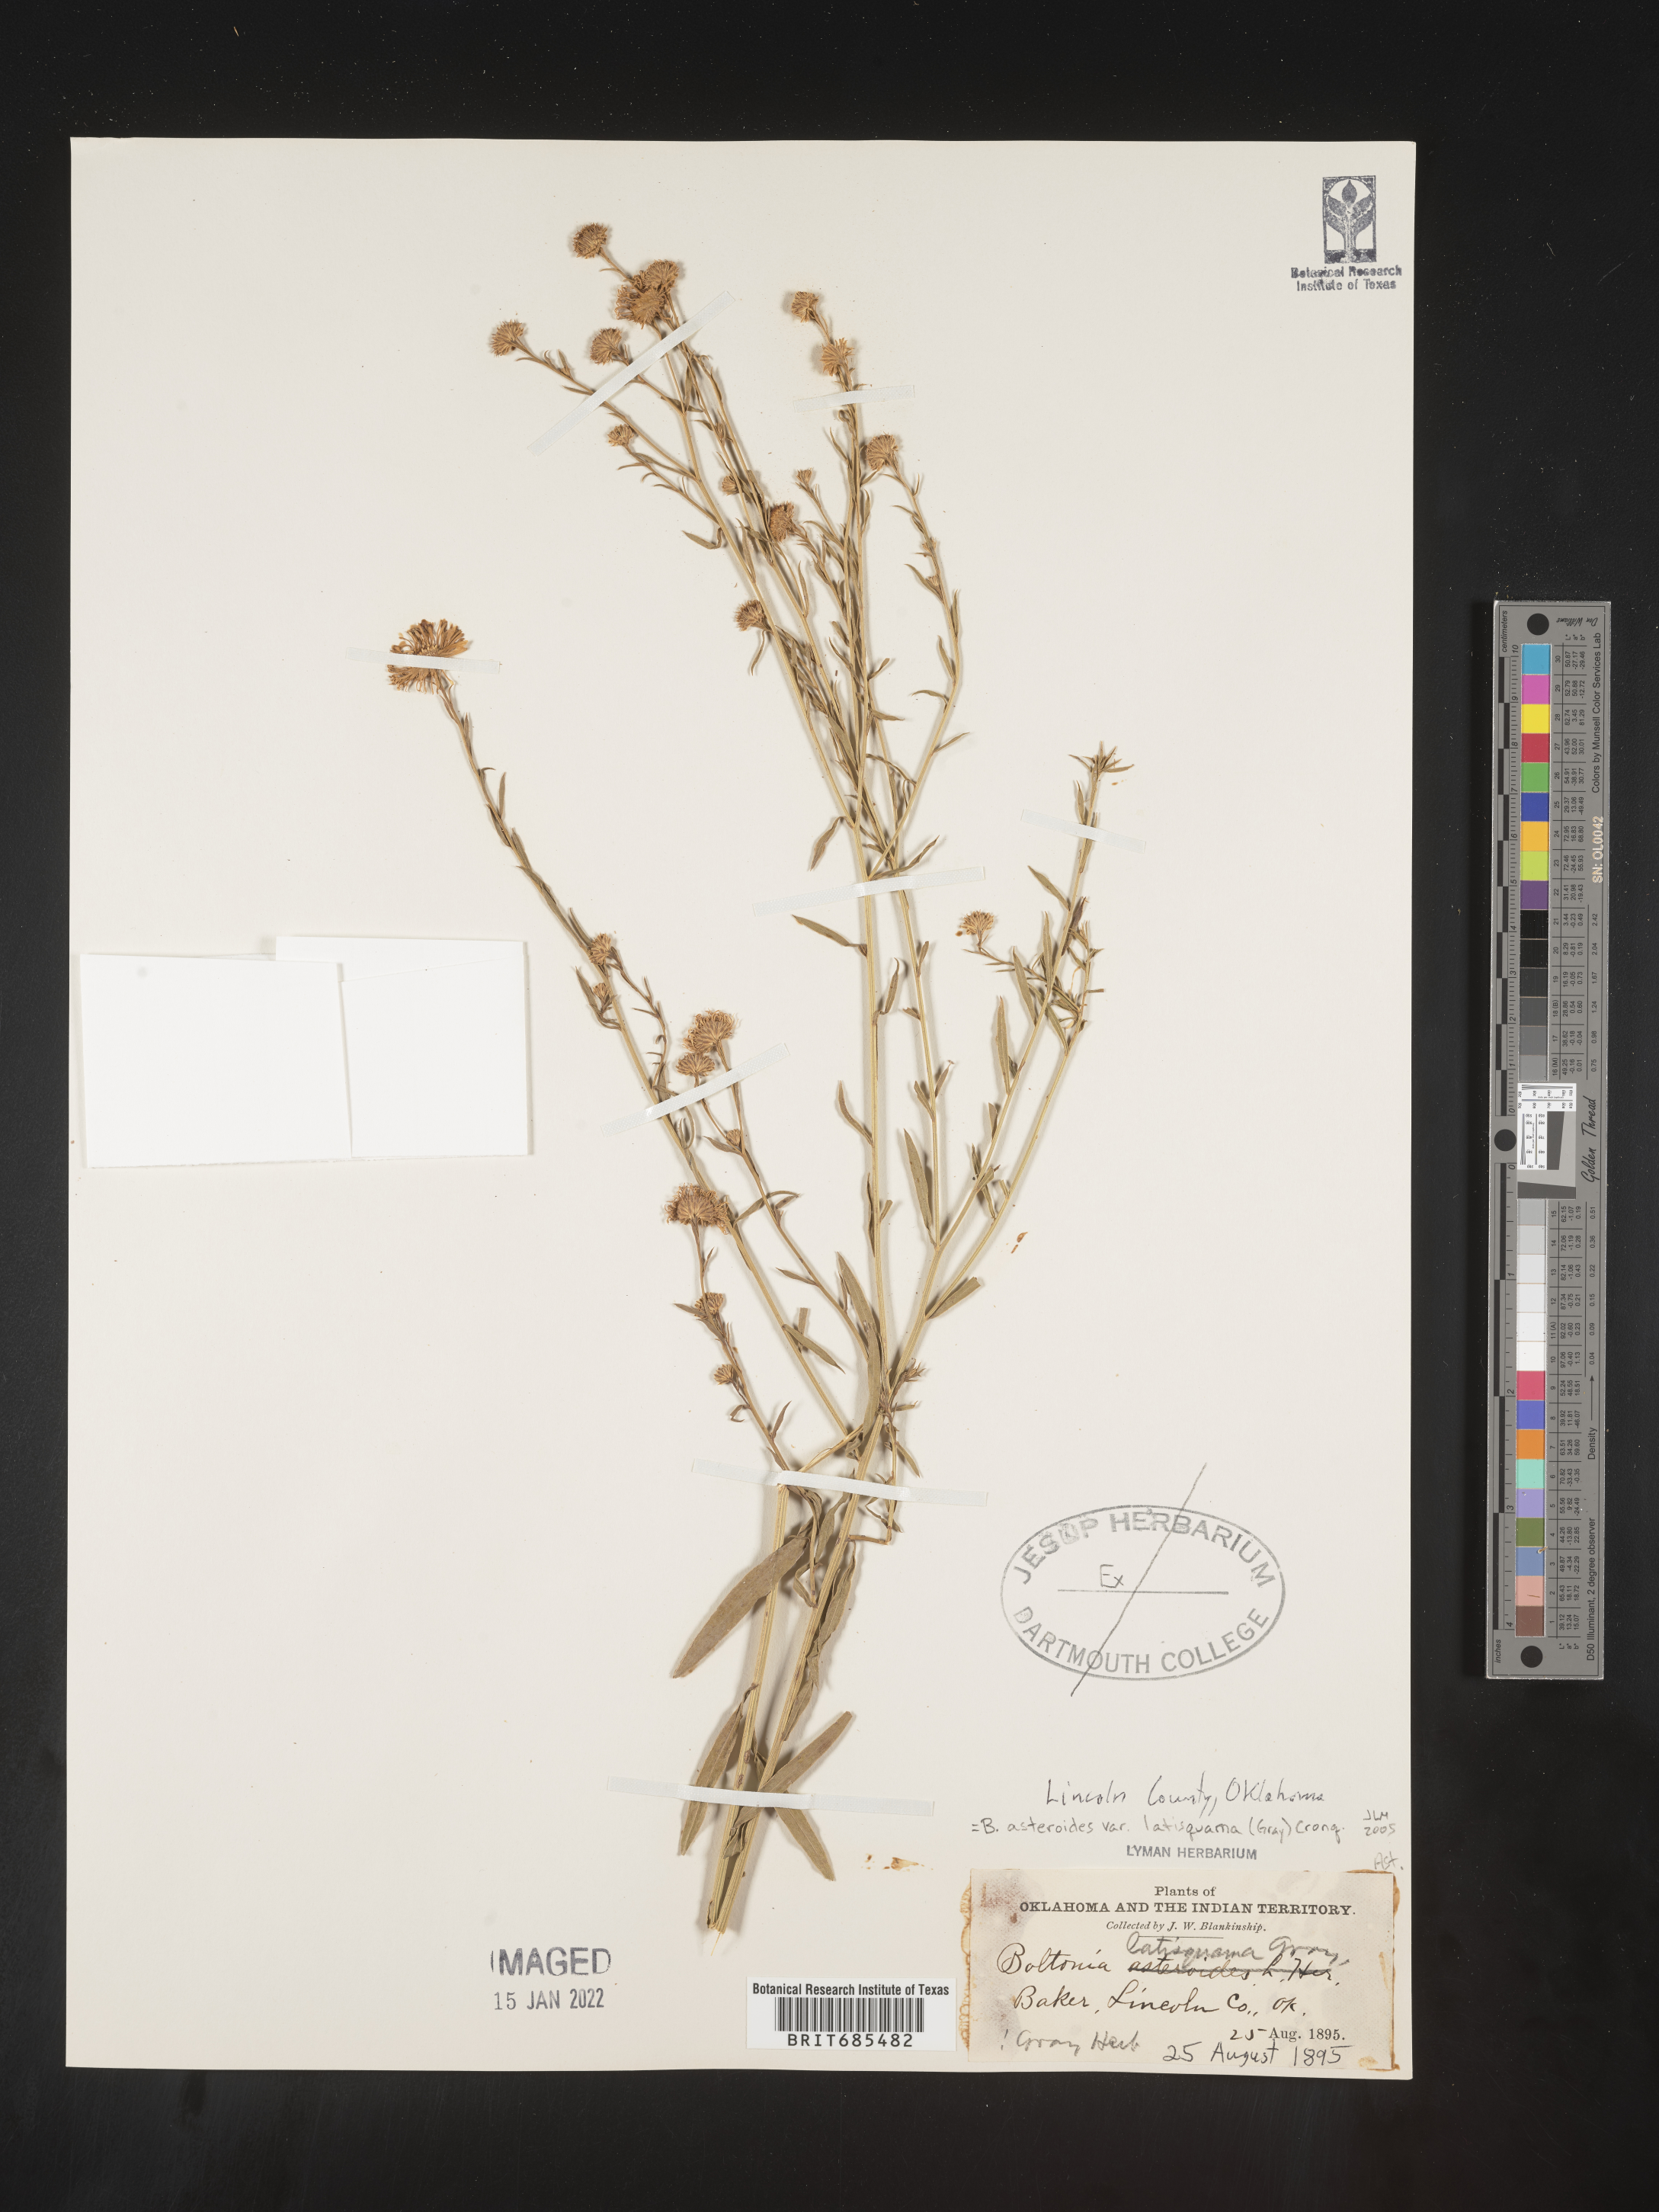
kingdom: Plantae
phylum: Tracheophyta
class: Magnoliopsida
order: Asterales
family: Asteraceae
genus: Boltonia
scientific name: Boltonia asteroides
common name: False chamomile
